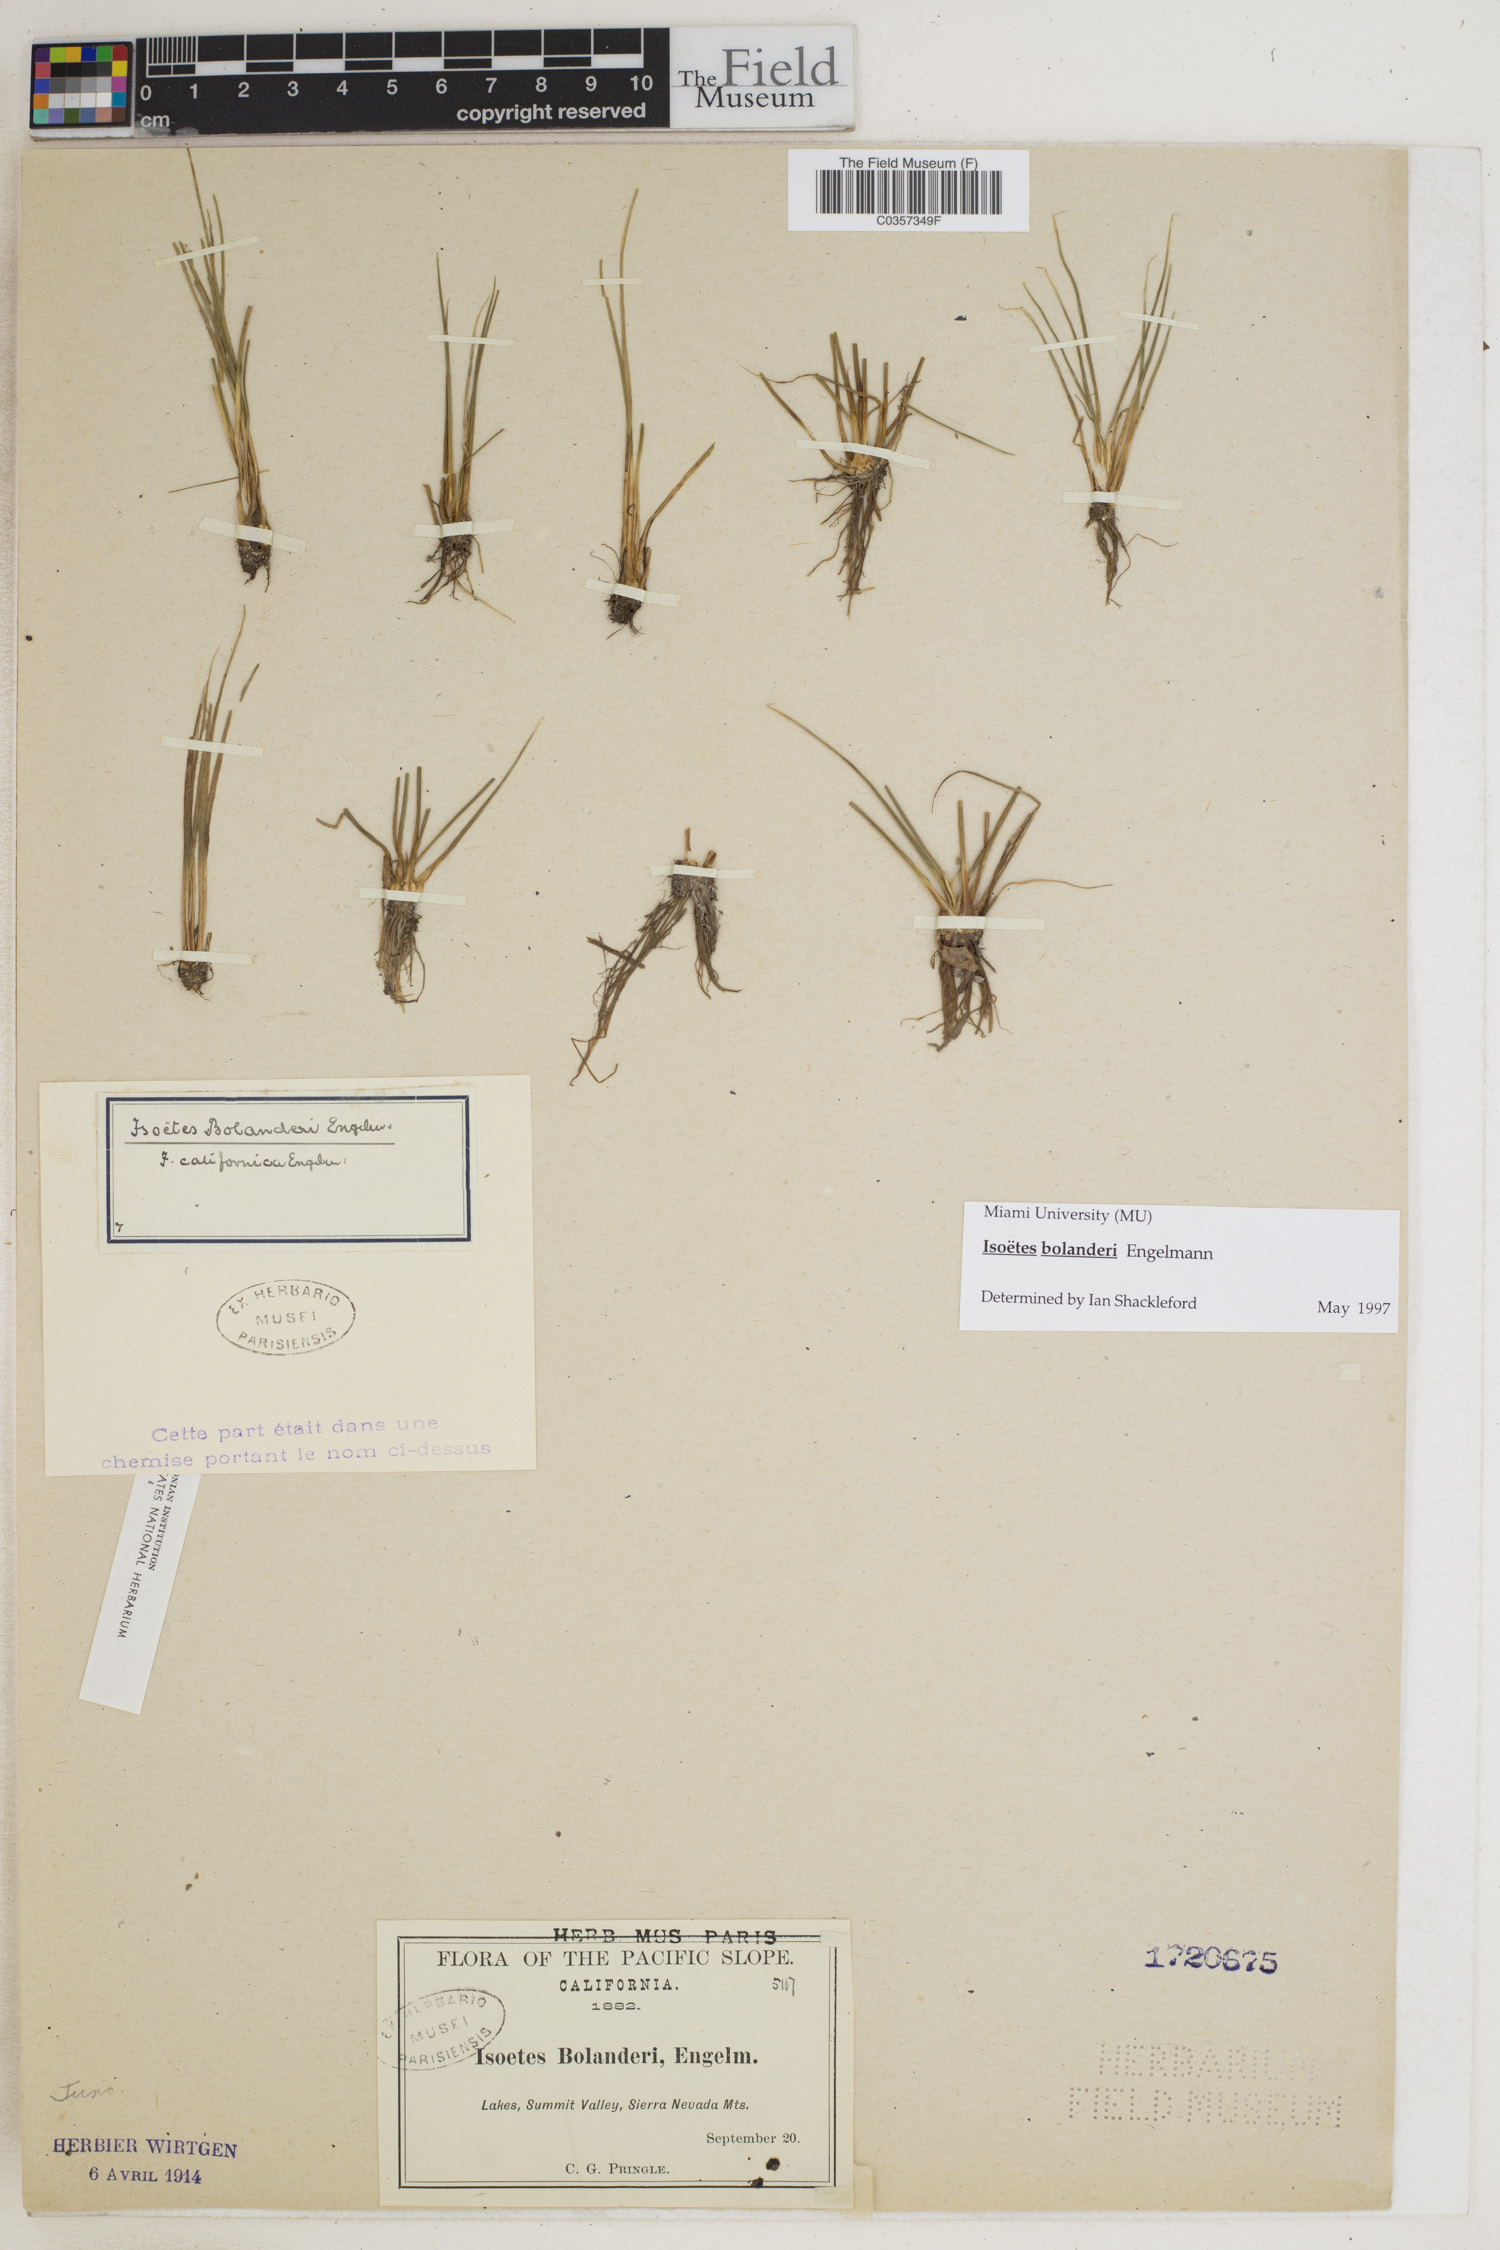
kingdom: Plantae
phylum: Tracheophyta
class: Lycopodiopsida
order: Isoetales
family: Isoetaceae
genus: Isoetes
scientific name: Isoetes bolanderi
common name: Bolander's quillwort
